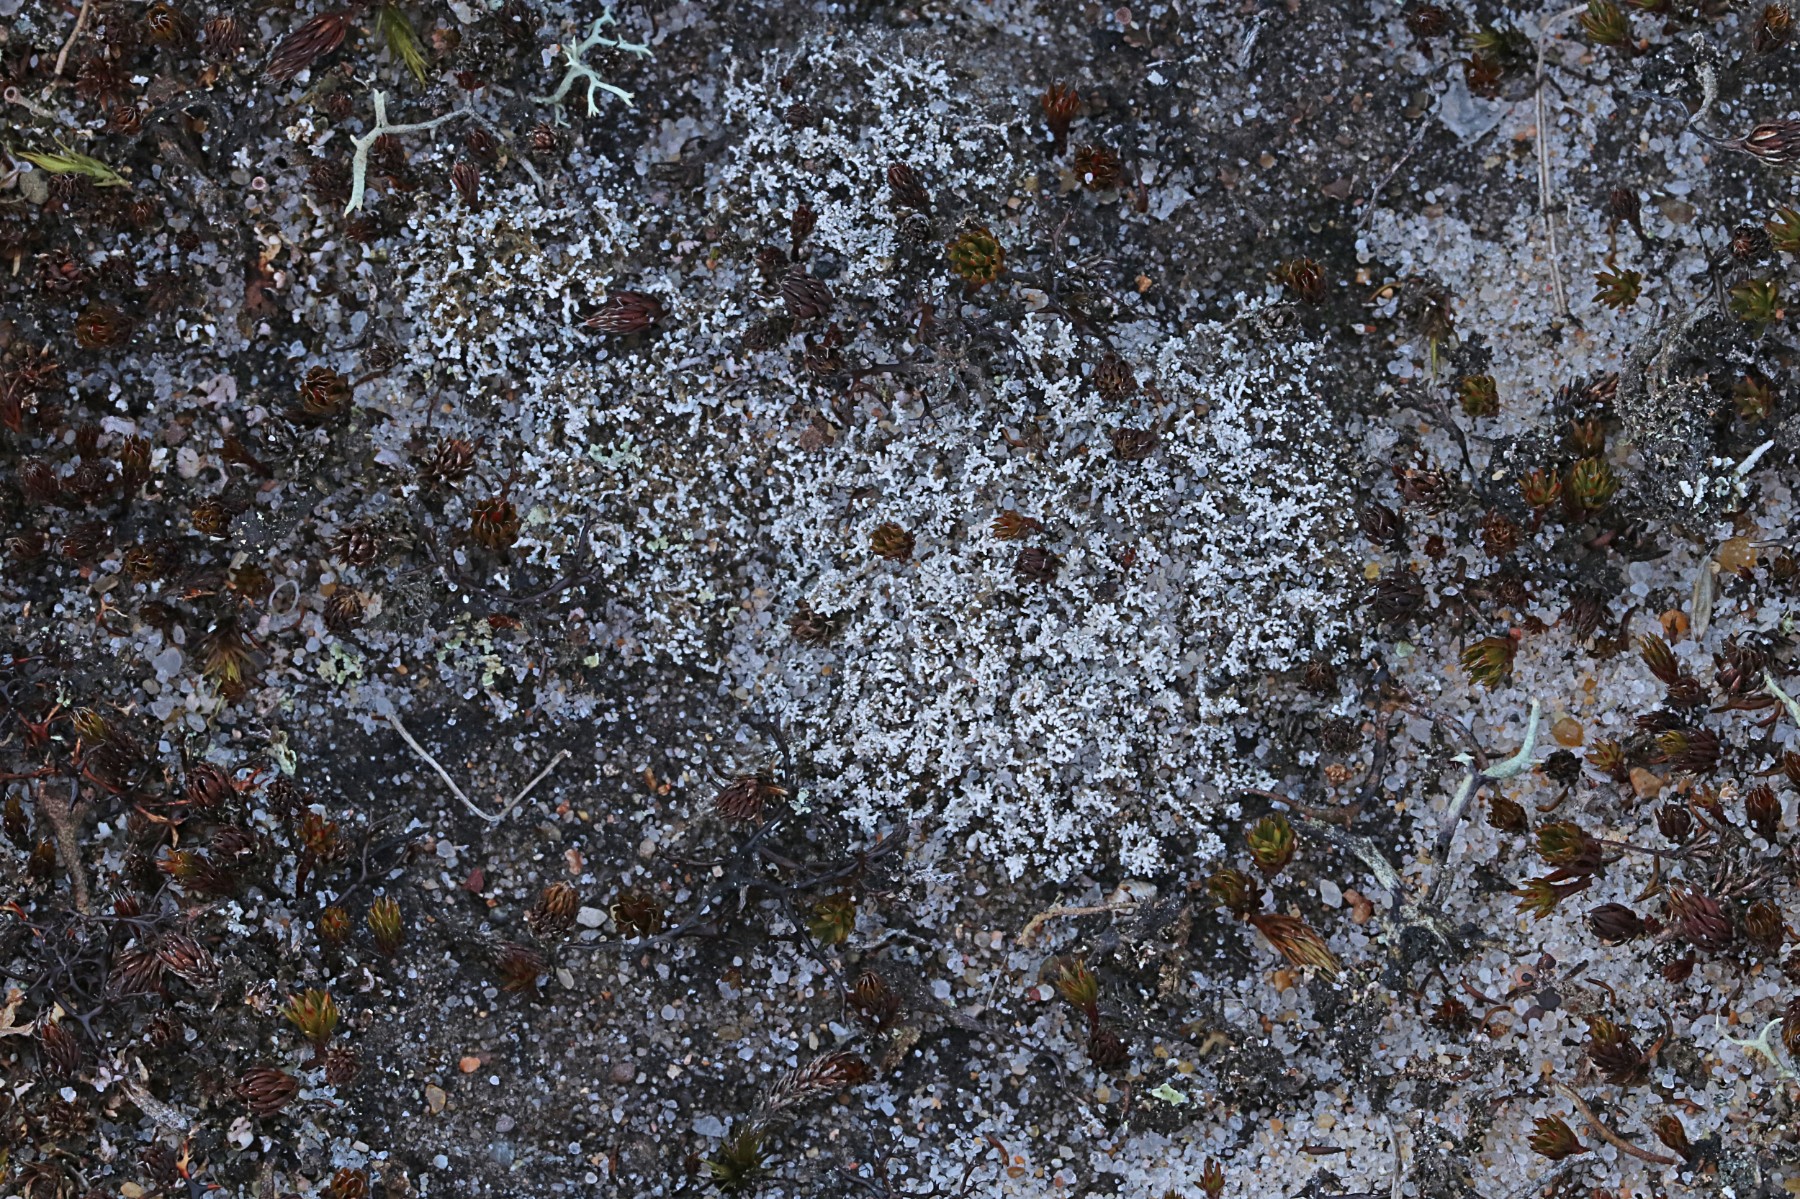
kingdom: Fungi
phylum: Ascomycota
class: Lecanoromycetes
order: Lecanorales
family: Stereocaulaceae
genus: Stereocaulon
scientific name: Stereocaulon condensatum
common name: lav korallav
